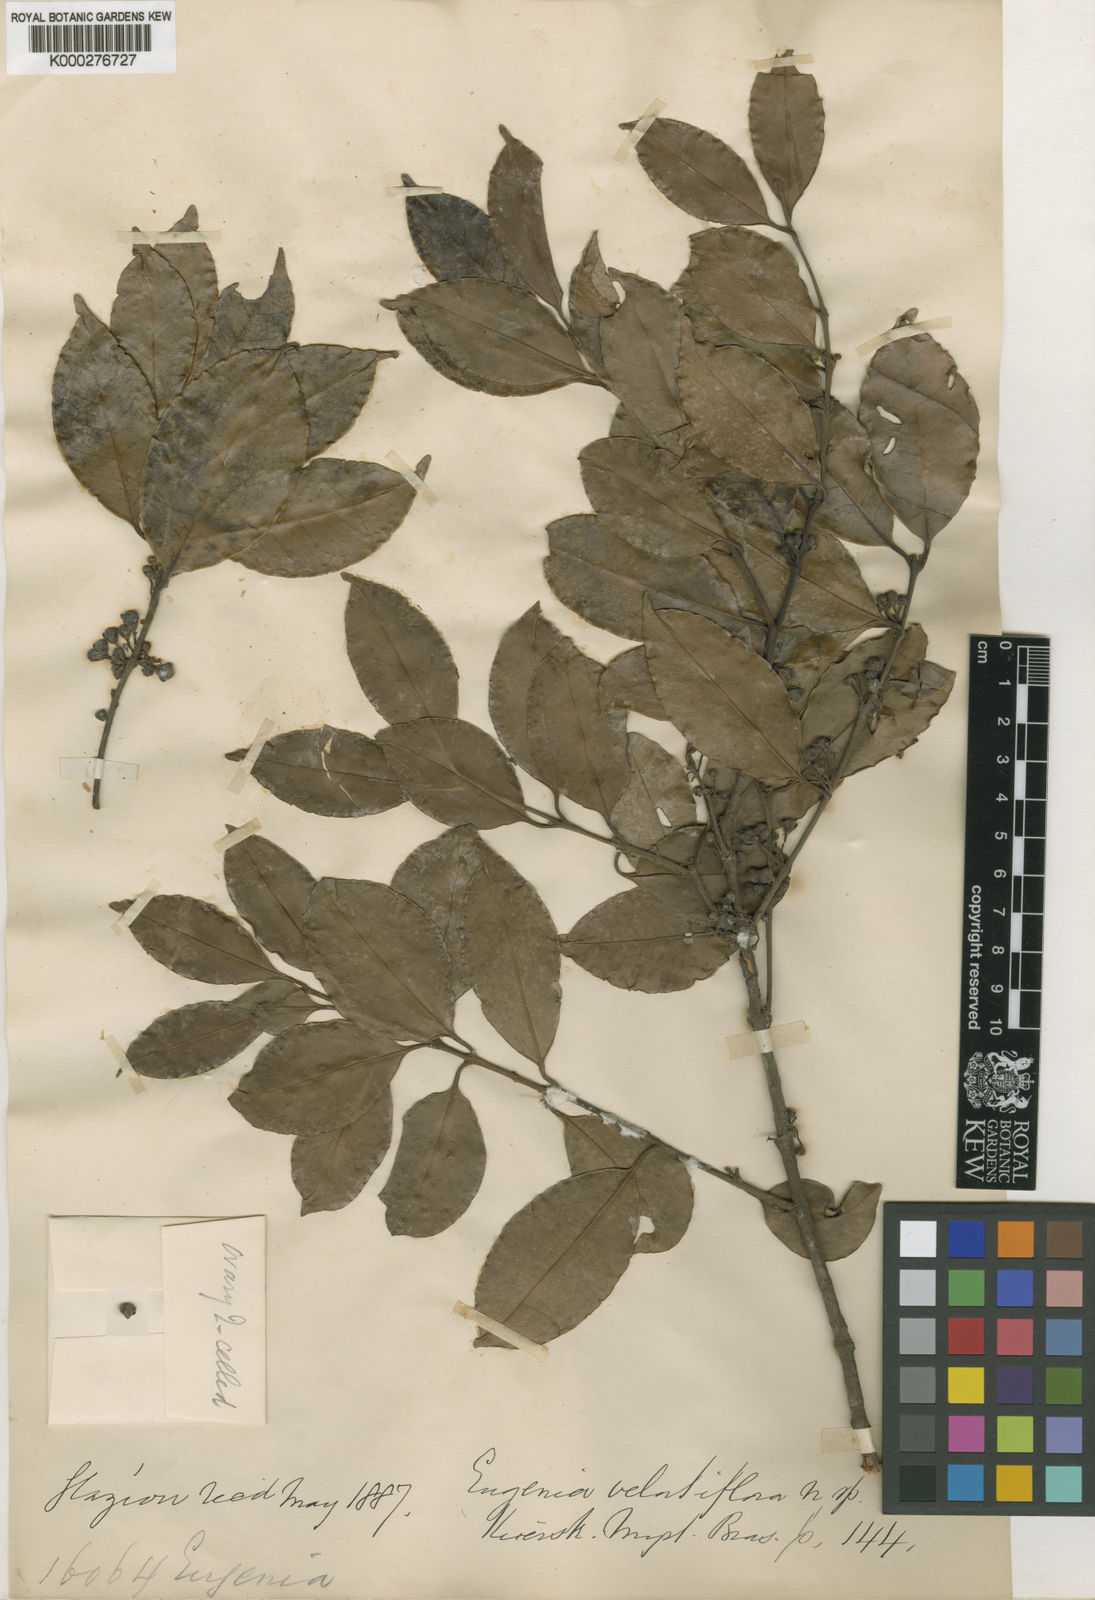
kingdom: Plantae
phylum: Tracheophyta
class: Magnoliopsida
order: Myrtales
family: Myrtaceae
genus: Eugenia
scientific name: Eugenia bahiensis
